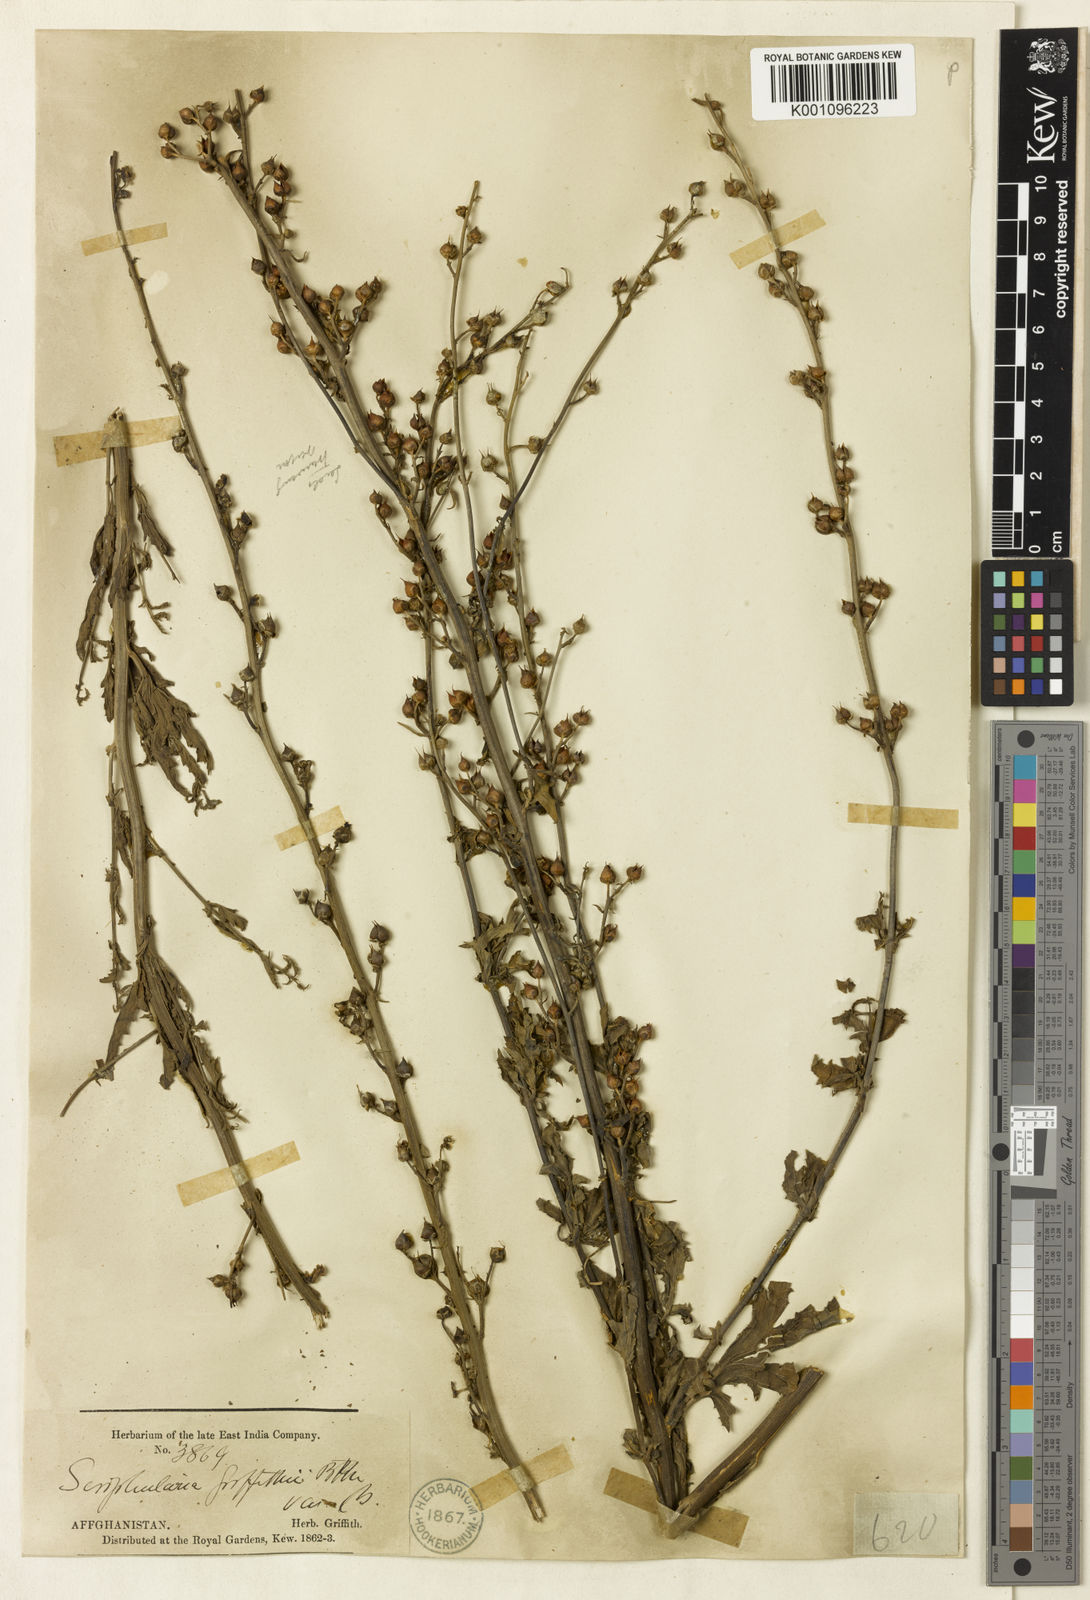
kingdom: Plantae
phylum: Tracheophyta
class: Magnoliopsida
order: Lamiales
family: Scrophulariaceae
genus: Scrophularia
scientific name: Scrophularia griffithii
